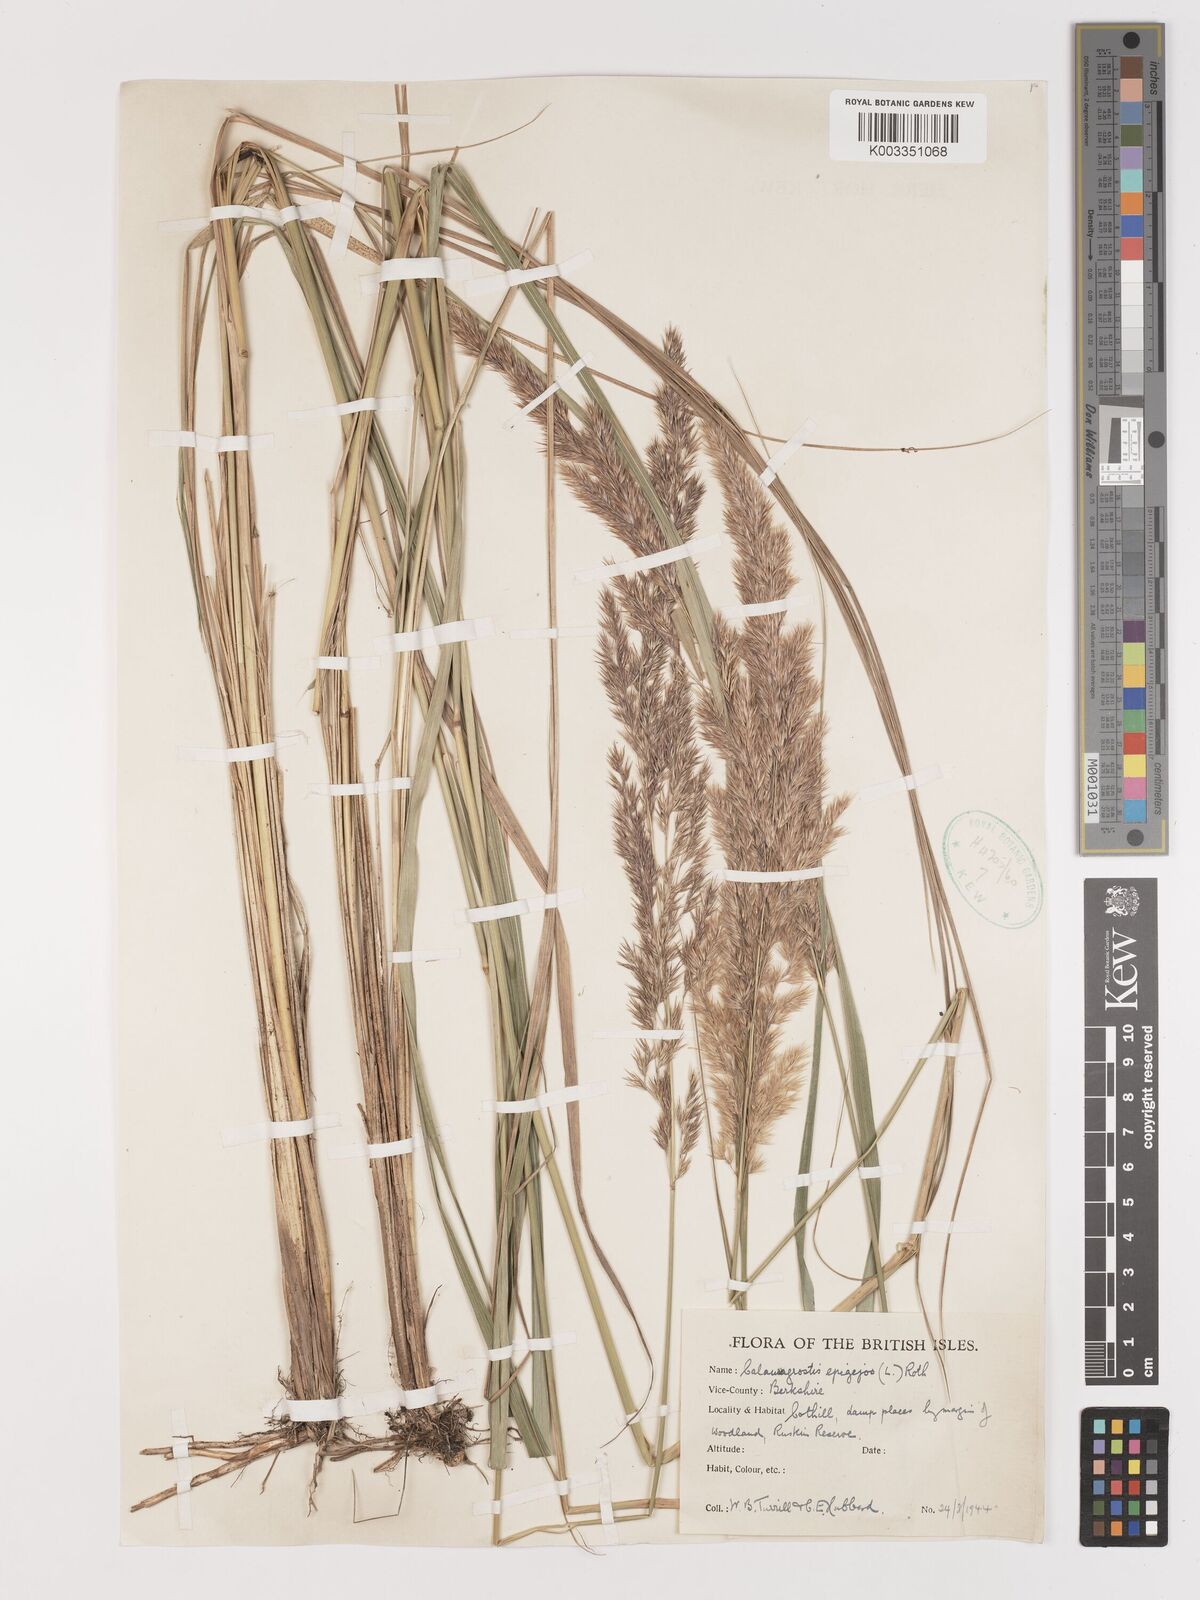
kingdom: Plantae
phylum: Tracheophyta
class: Liliopsida
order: Poales
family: Poaceae
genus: Calamagrostis
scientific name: Calamagrostis epigejos
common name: Wood small-reed
